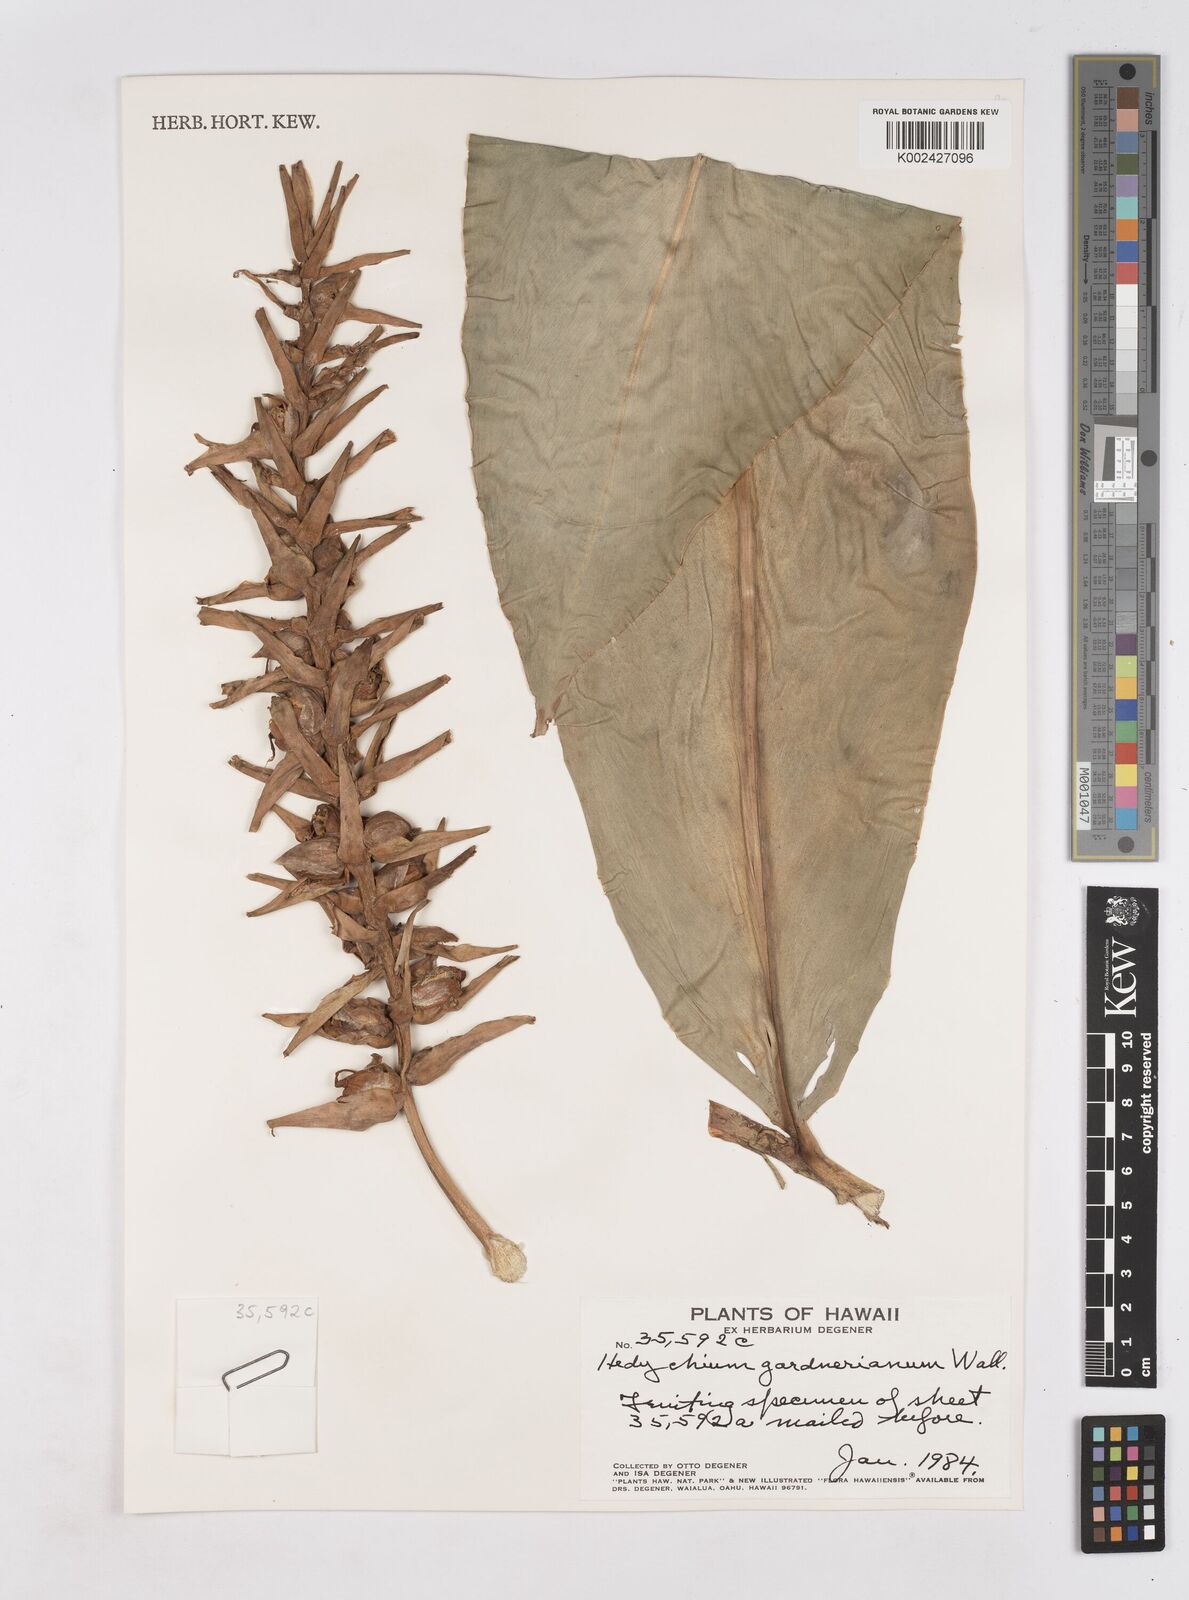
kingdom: Plantae
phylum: Tracheophyta
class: Liliopsida
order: Zingiberales
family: Zingiberaceae
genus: Hedychium
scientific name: Hedychium gardnerianum
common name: Himalayan ginger
